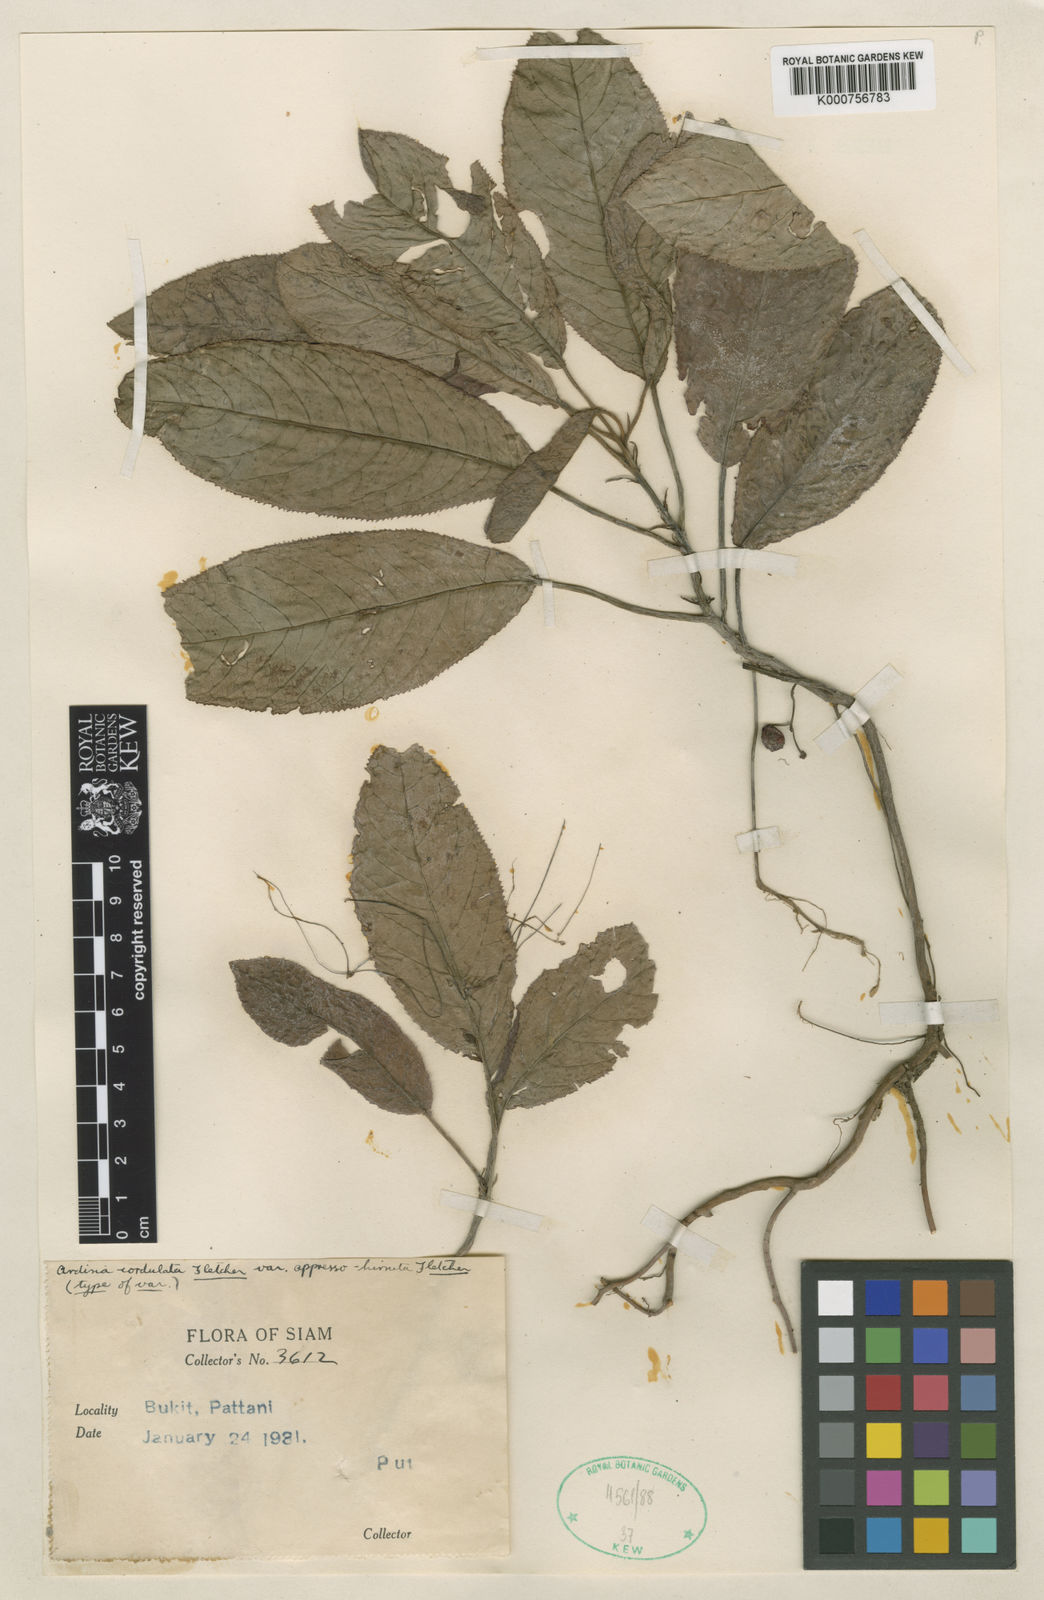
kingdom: Plantae
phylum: Tracheophyta
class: Magnoliopsida
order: Ericales
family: Primulaceae
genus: Ardisia
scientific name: Ardisia demissa
